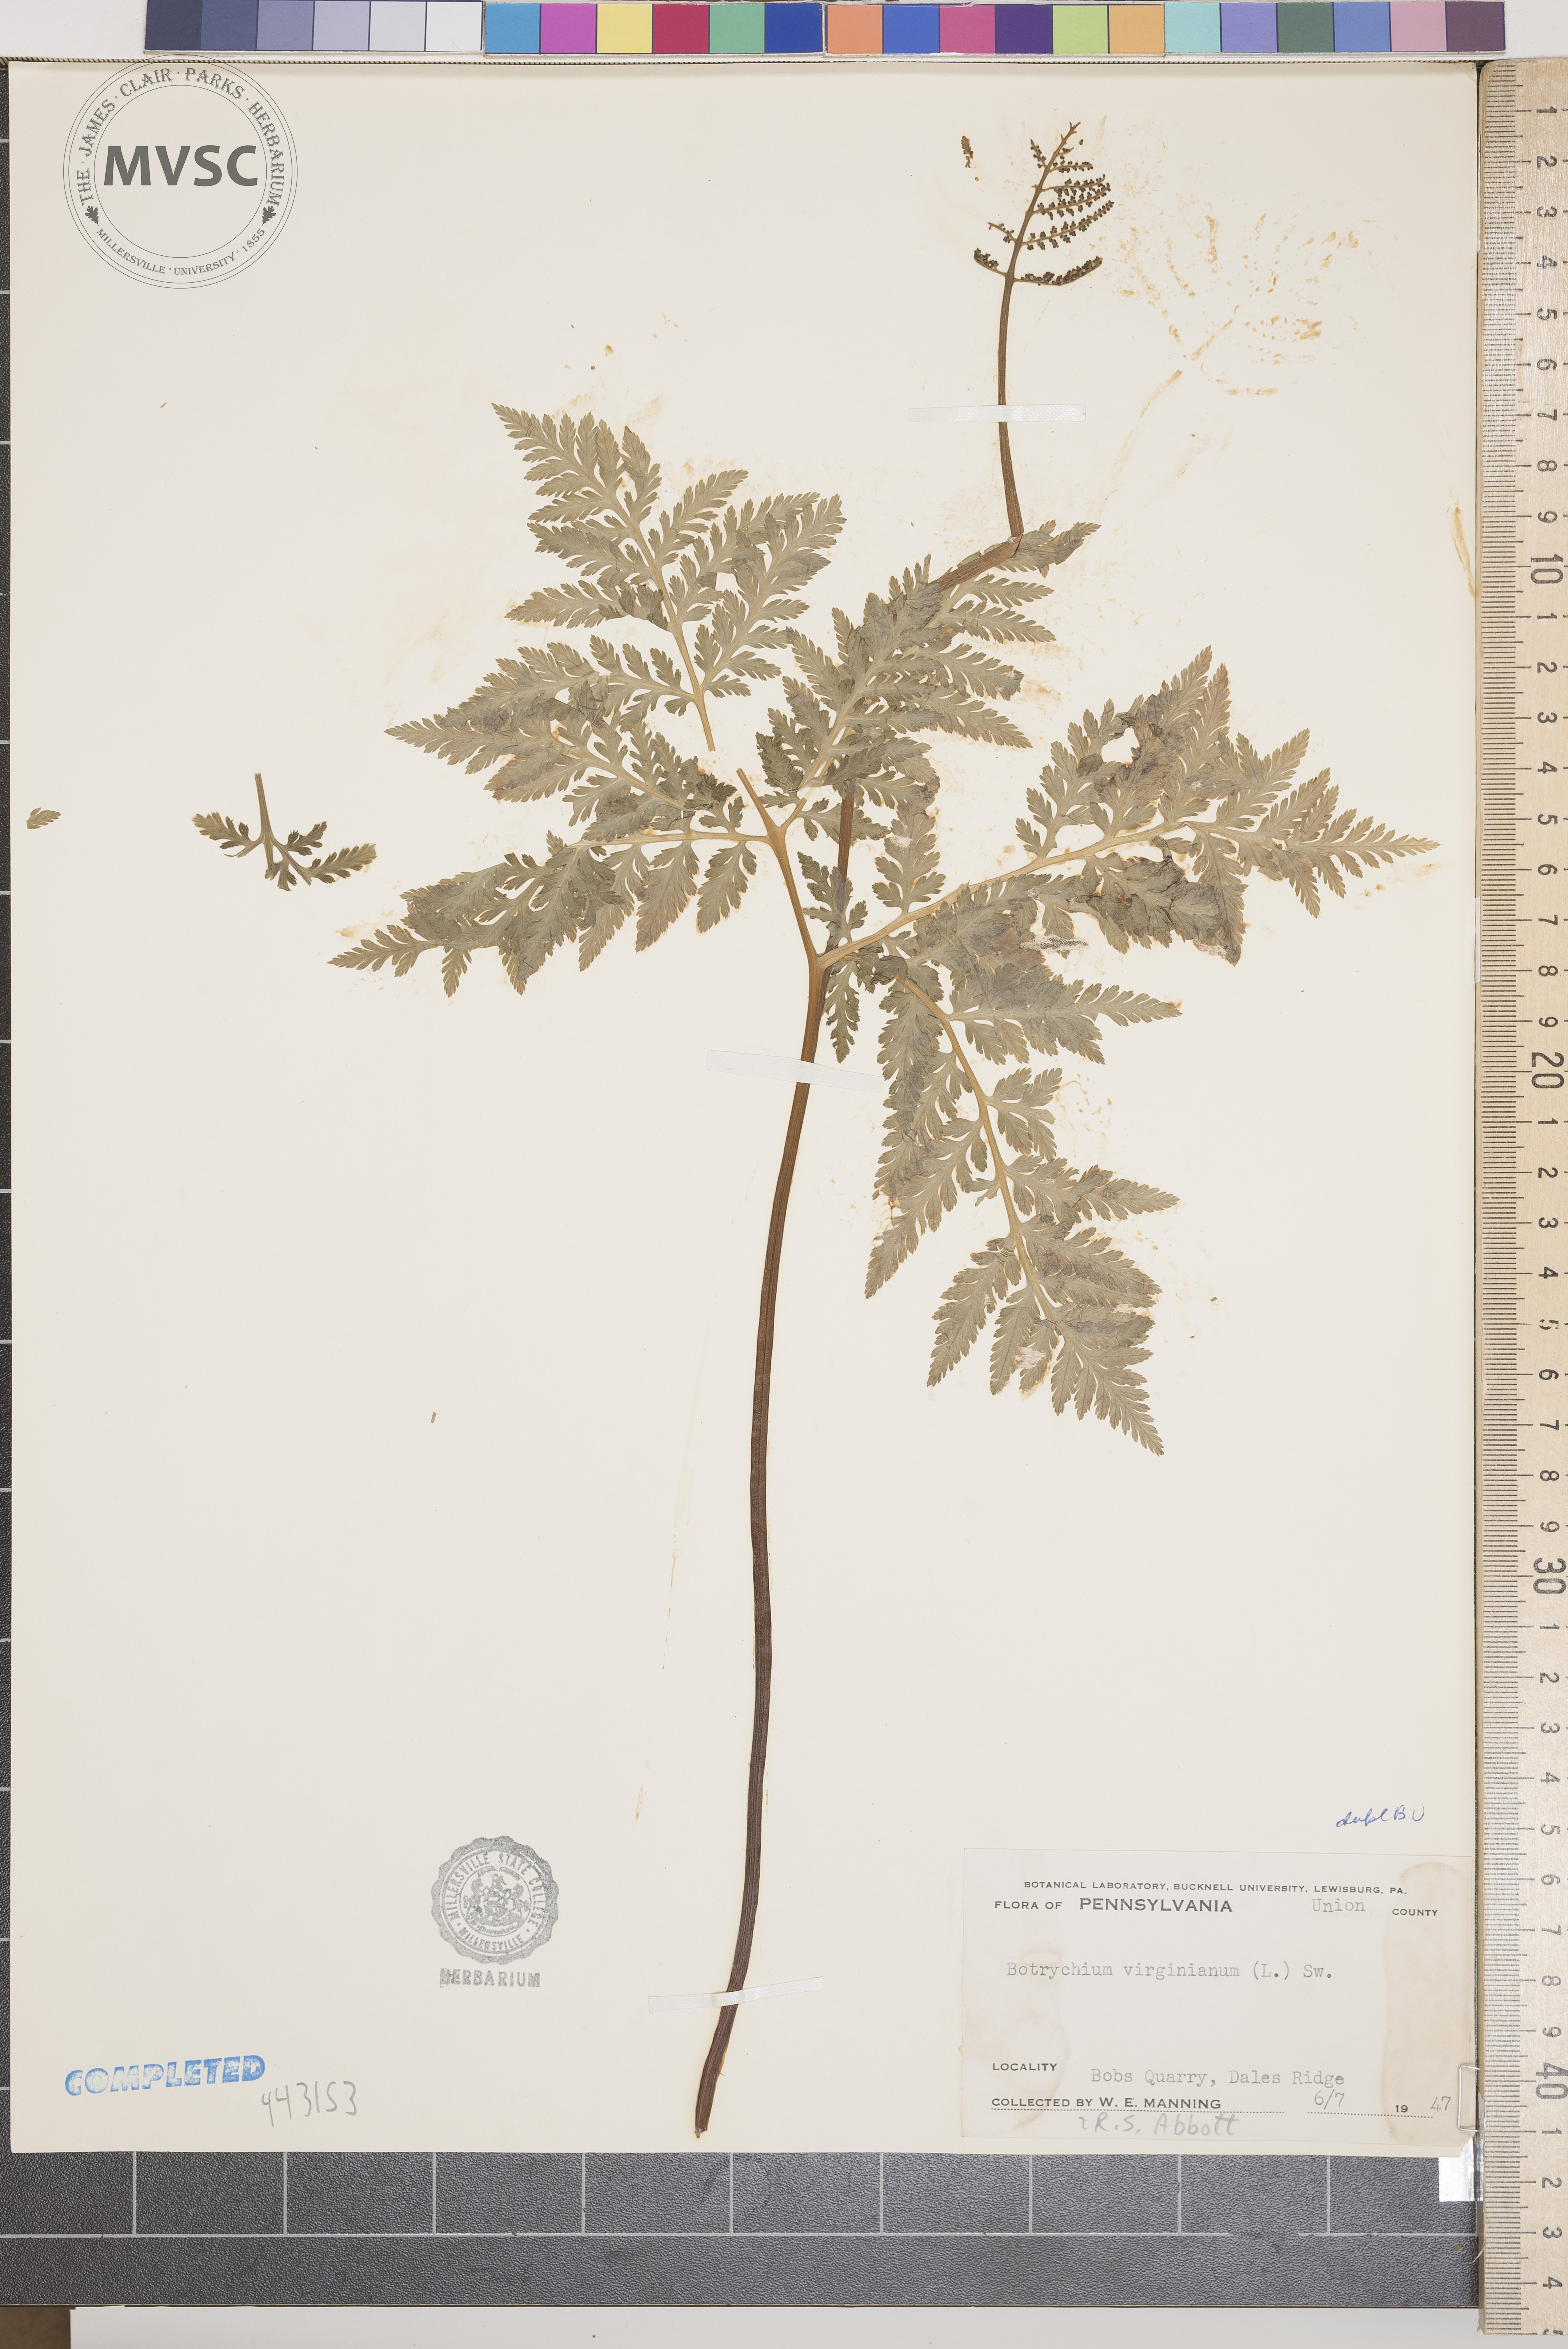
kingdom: Plantae
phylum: Tracheophyta
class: Polypodiopsida
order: Ophioglossales
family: Ophioglossaceae
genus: Botrypus
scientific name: Botrypus virginianus
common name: Common grapefern
